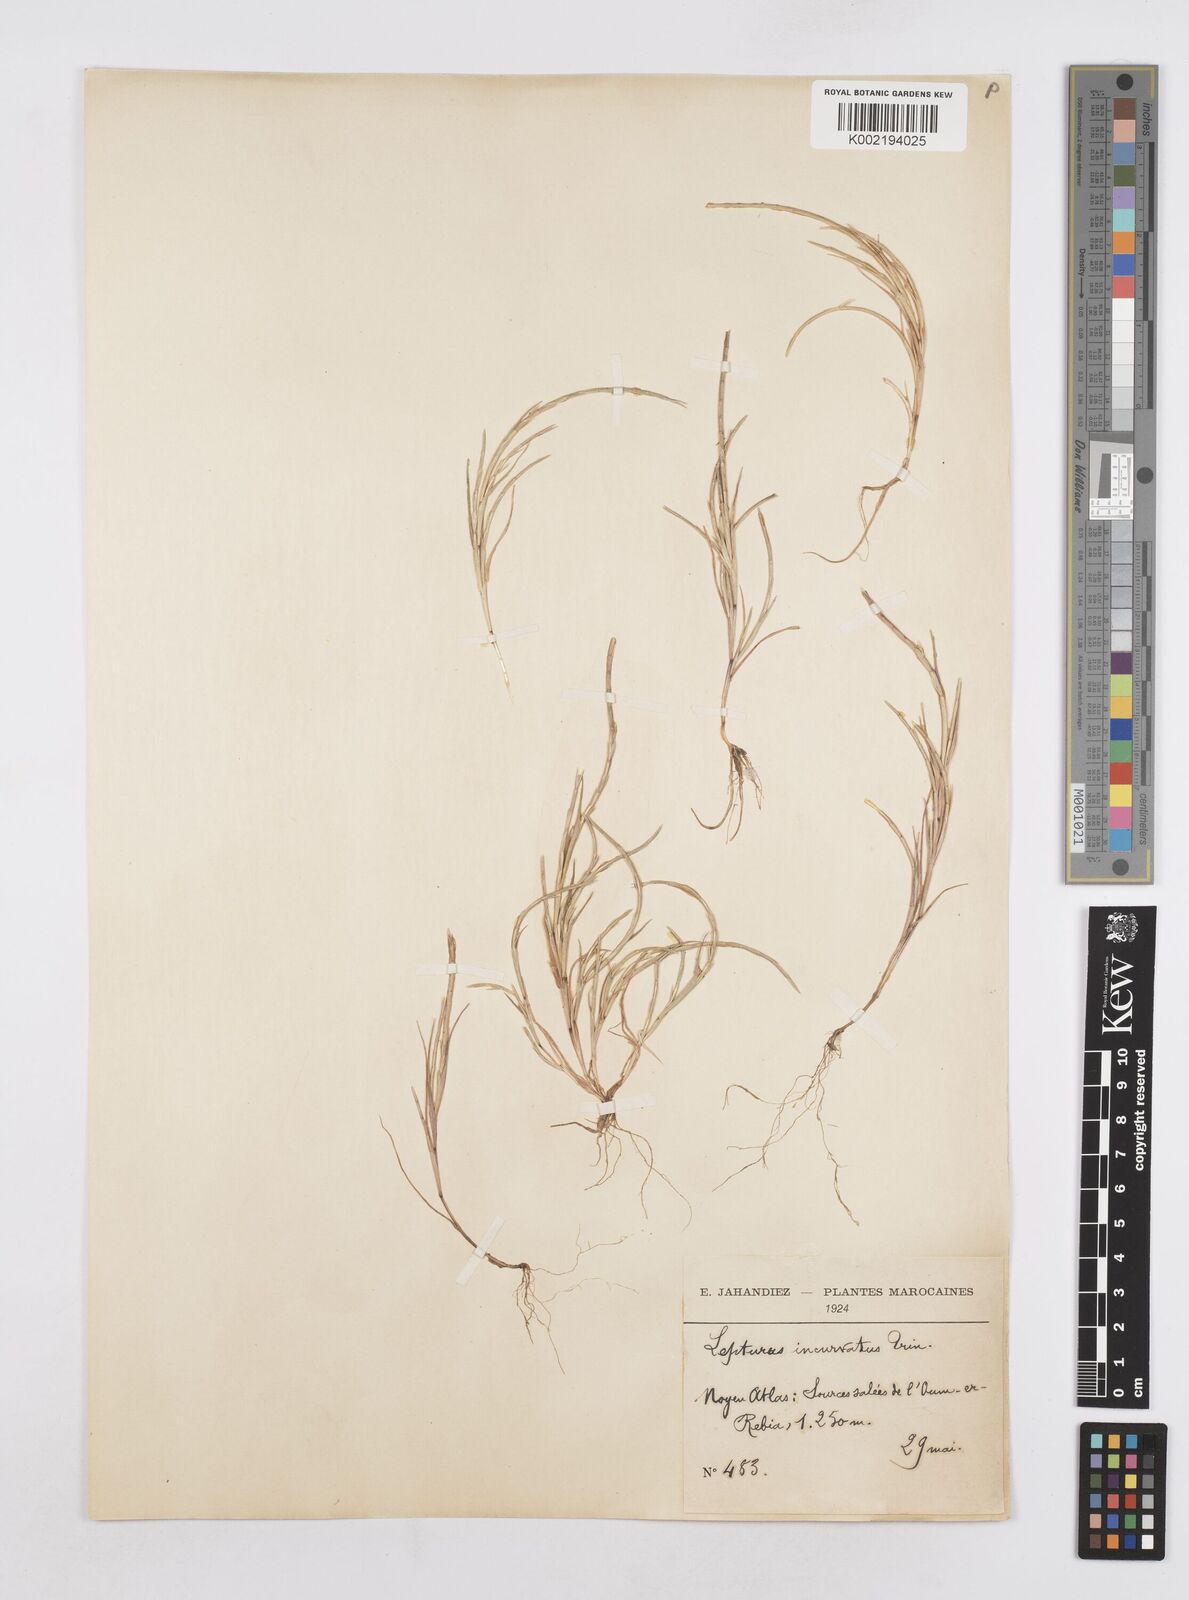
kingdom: Plantae
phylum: Tracheophyta
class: Liliopsida
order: Poales
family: Poaceae
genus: Parapholis
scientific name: Parapholis incurva
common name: Curved sicklegrass
